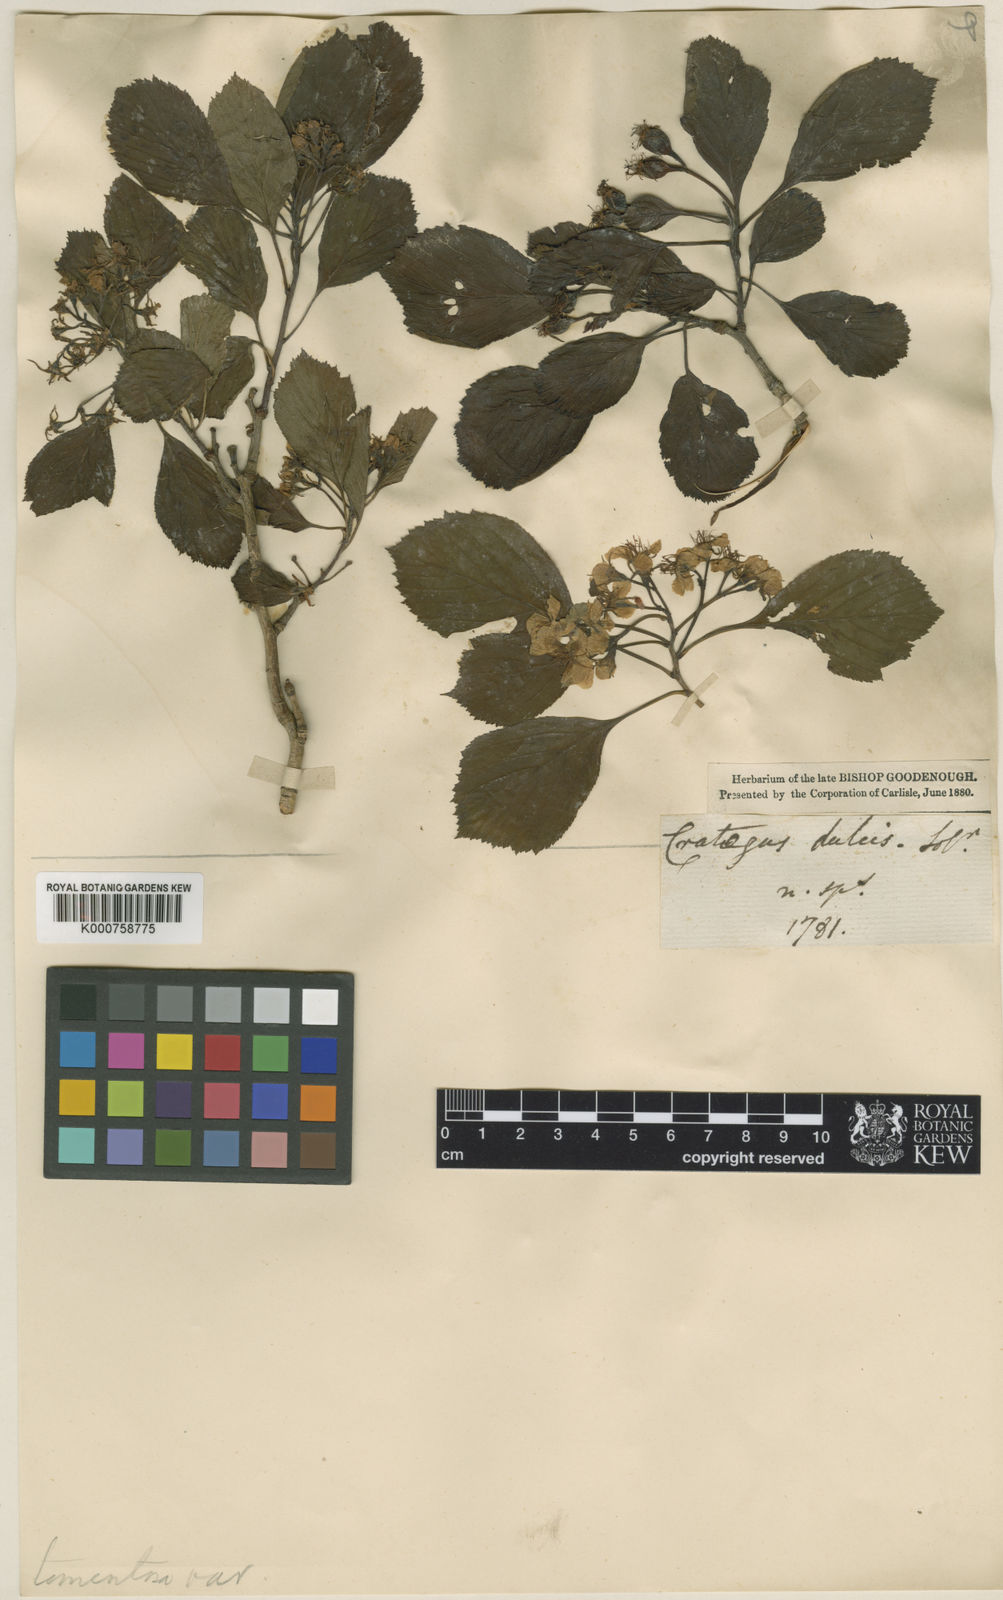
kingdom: Plantae
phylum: Tracheophyta
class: Magnoliopsida
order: Rosales
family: Rosaceae
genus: Crataegus
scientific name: Crataegus punctata
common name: Dotted hawthorn
